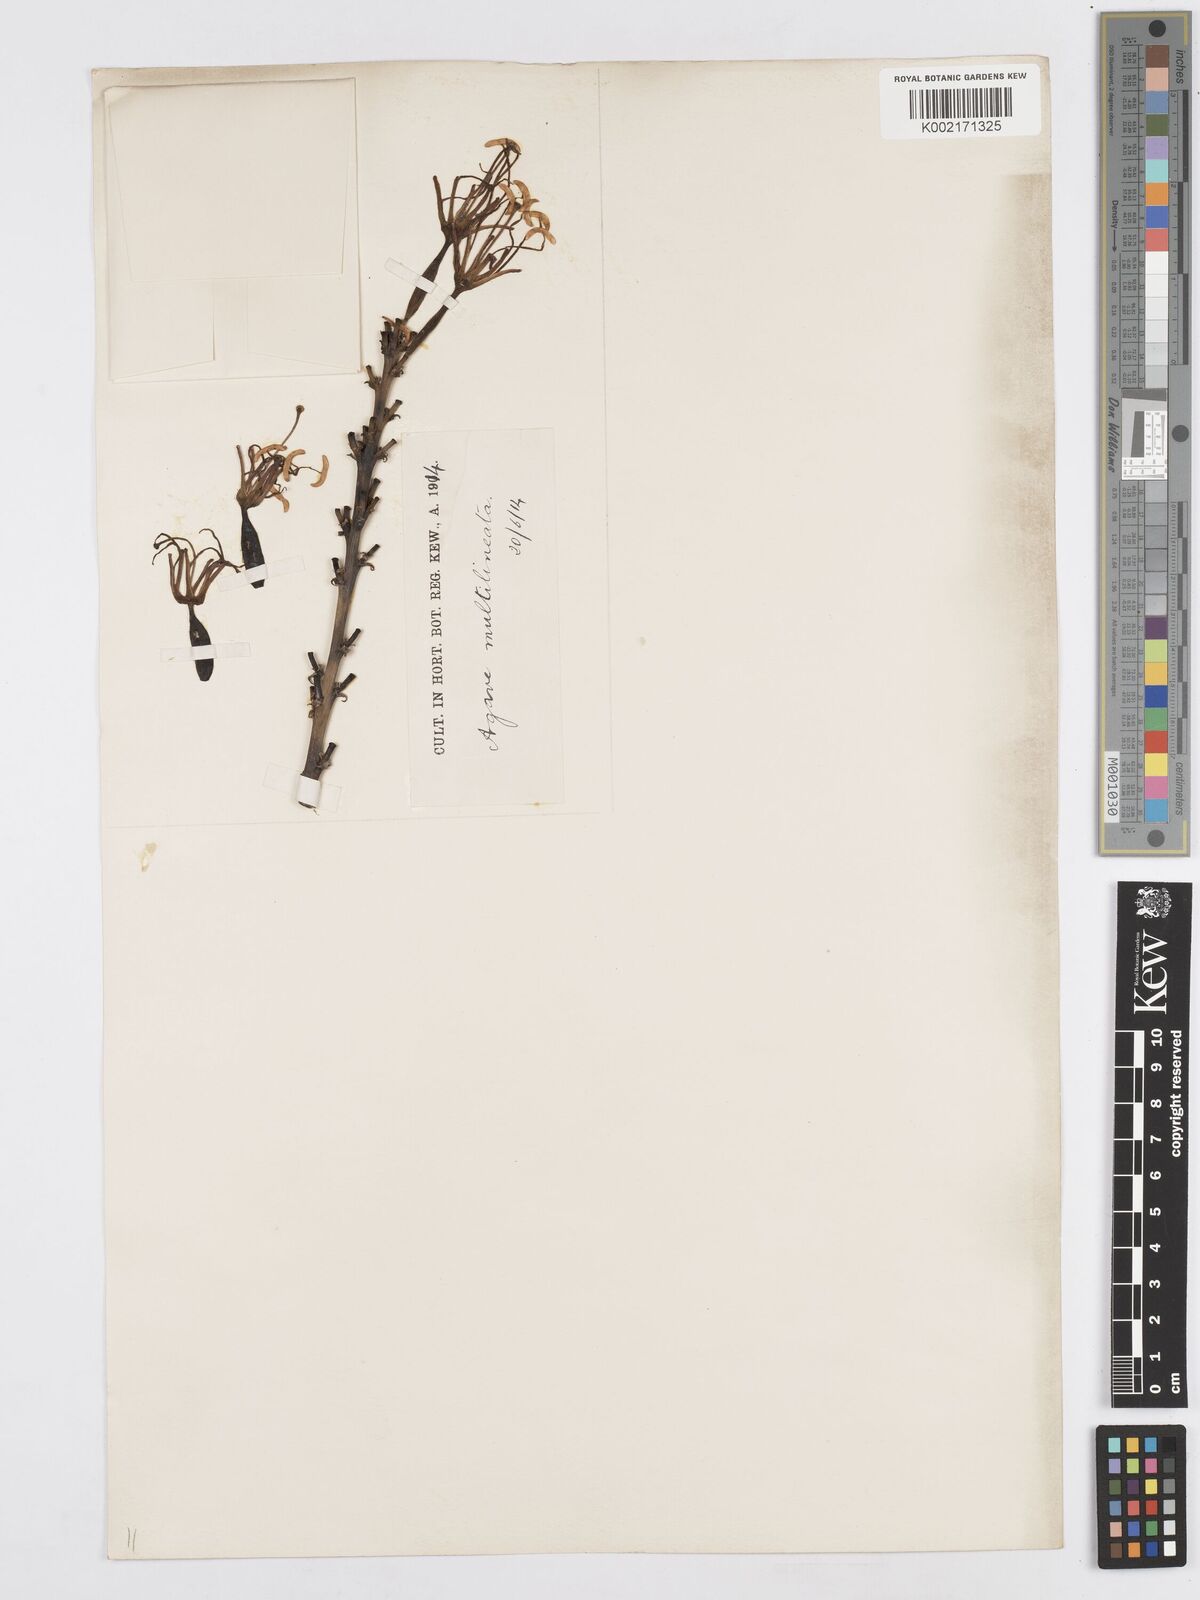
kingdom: Plantae
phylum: Tracheophyta
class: Liliopsida
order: Asparagales
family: Asparagaceae
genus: Agave
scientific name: Agave lechuguilla
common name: Lecheguilla agave
